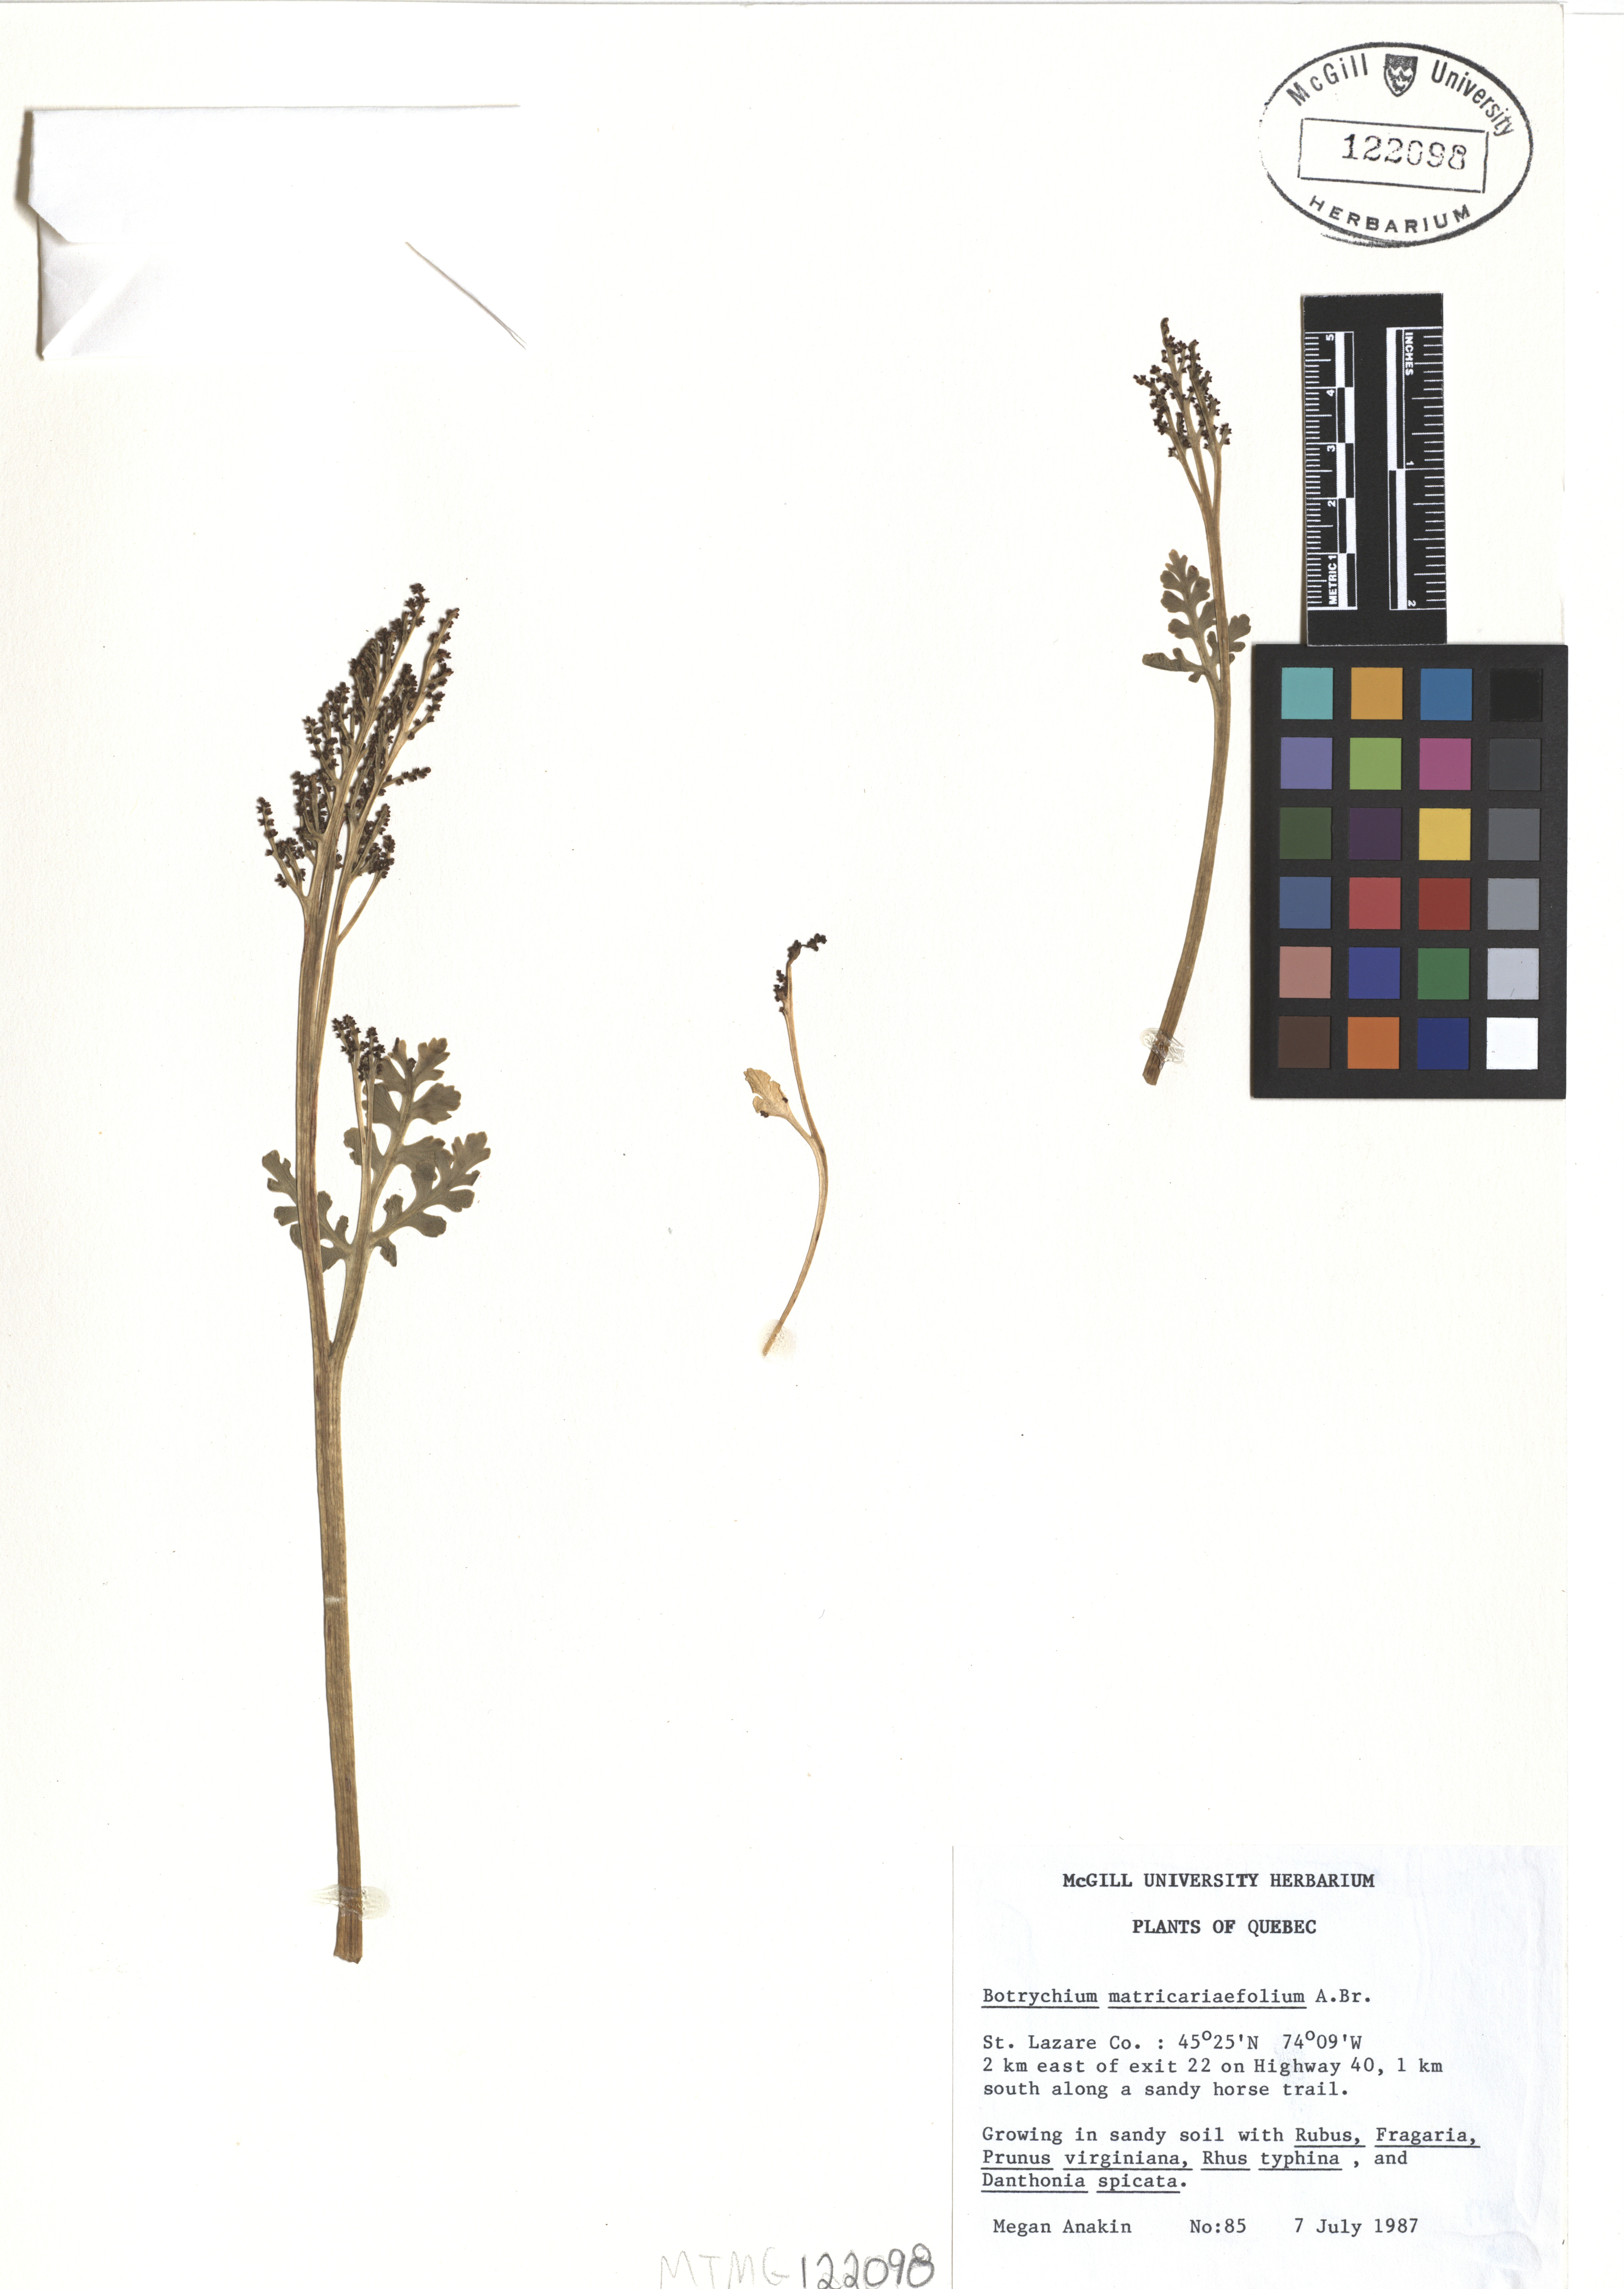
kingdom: Plantae
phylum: Tracheophyta
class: Polypodiopsida
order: Ophioglossales
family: Ophioglossaceae
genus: Botrychium
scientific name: Botrychium matricariifolium
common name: Branched moonwort
